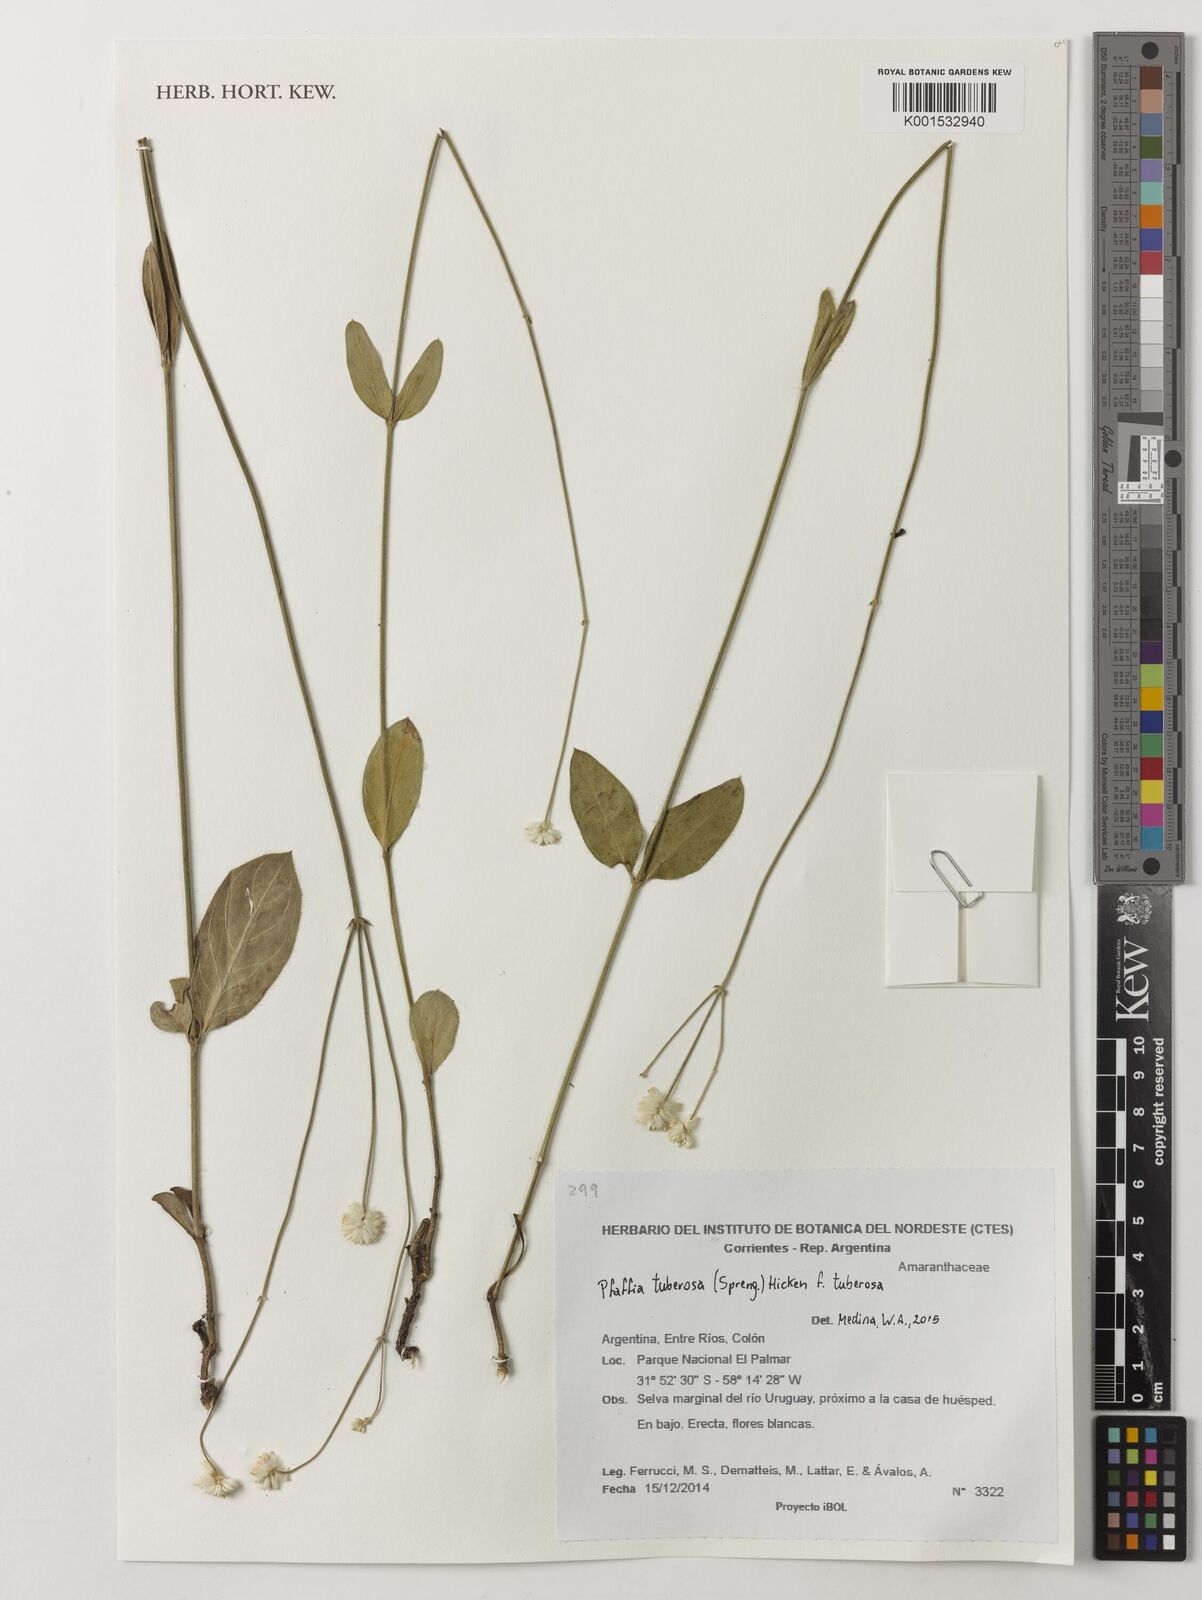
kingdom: Plantae
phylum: Tracheophyta
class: Magnoliopsida
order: Caryophyllales
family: Amaranthaceae
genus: Pfaffia
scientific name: Pfaffia
